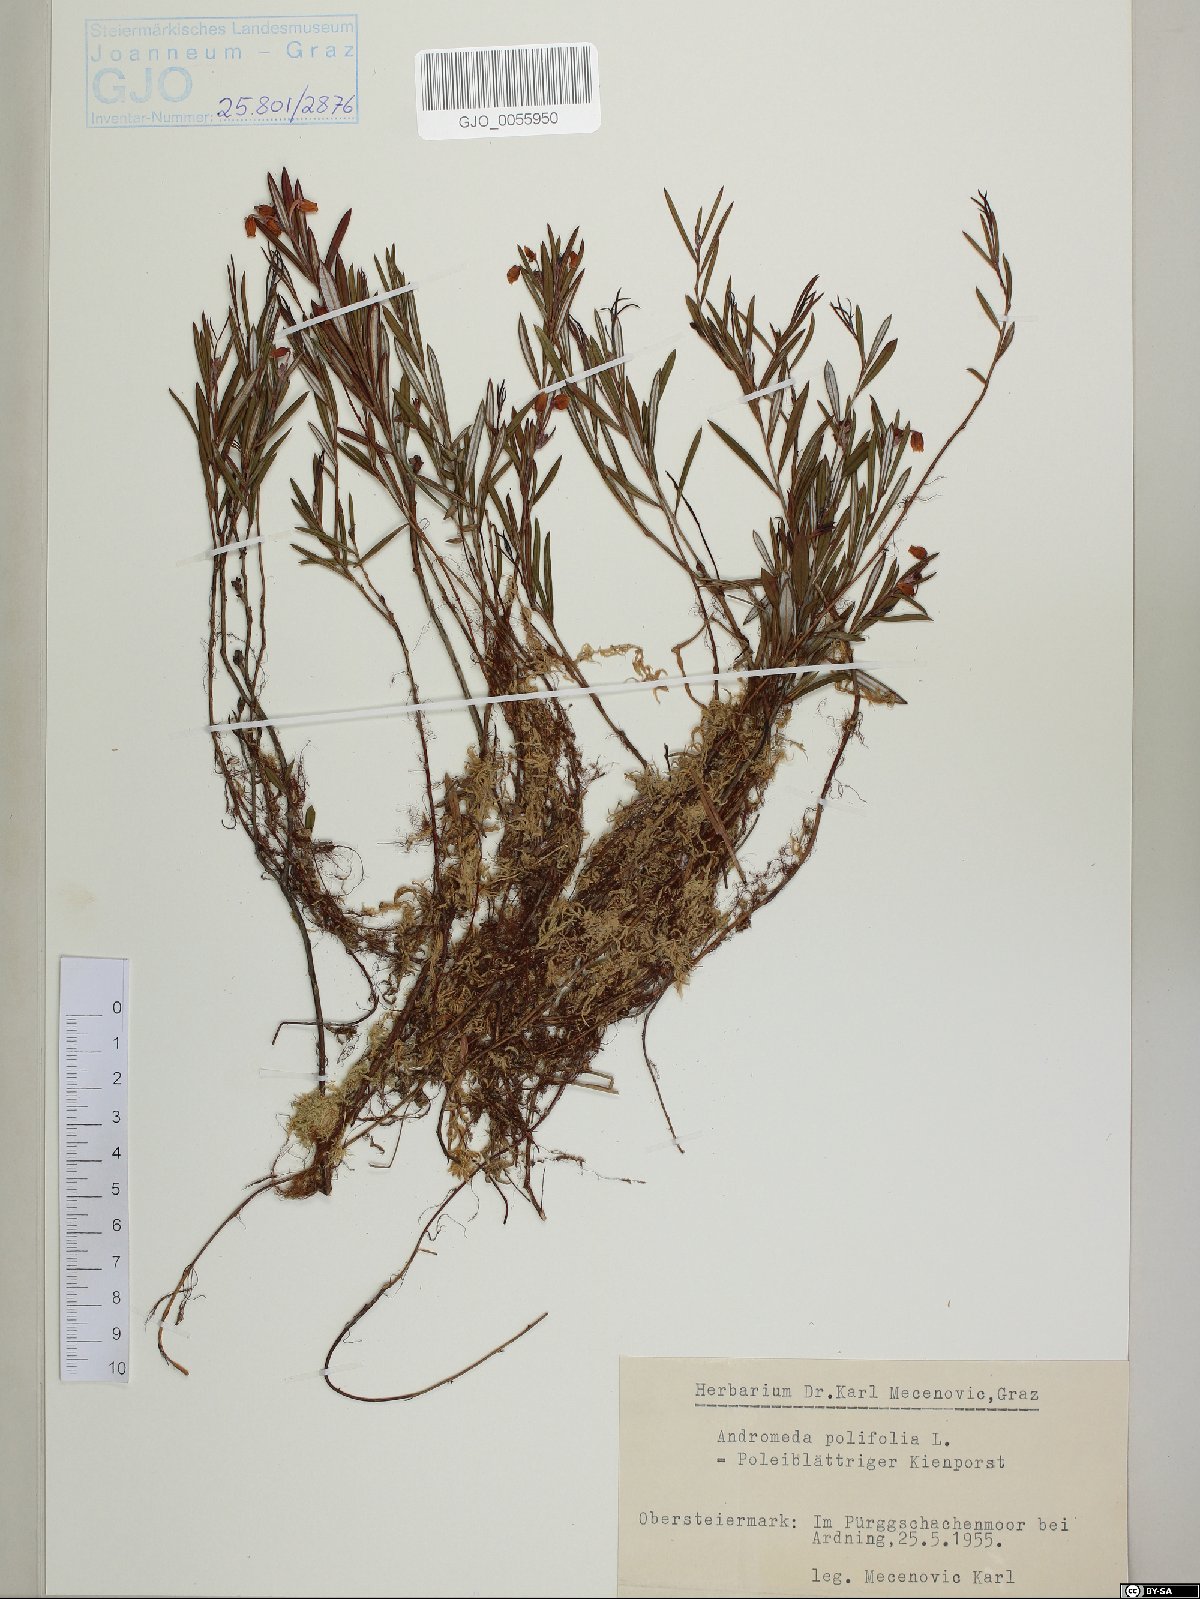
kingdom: Plantae
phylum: Tracheophyta
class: Magnoliopsida
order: Ericales
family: Ericaceae
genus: Andromeda
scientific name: Andromeda polifolia
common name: Bog-rosemary
